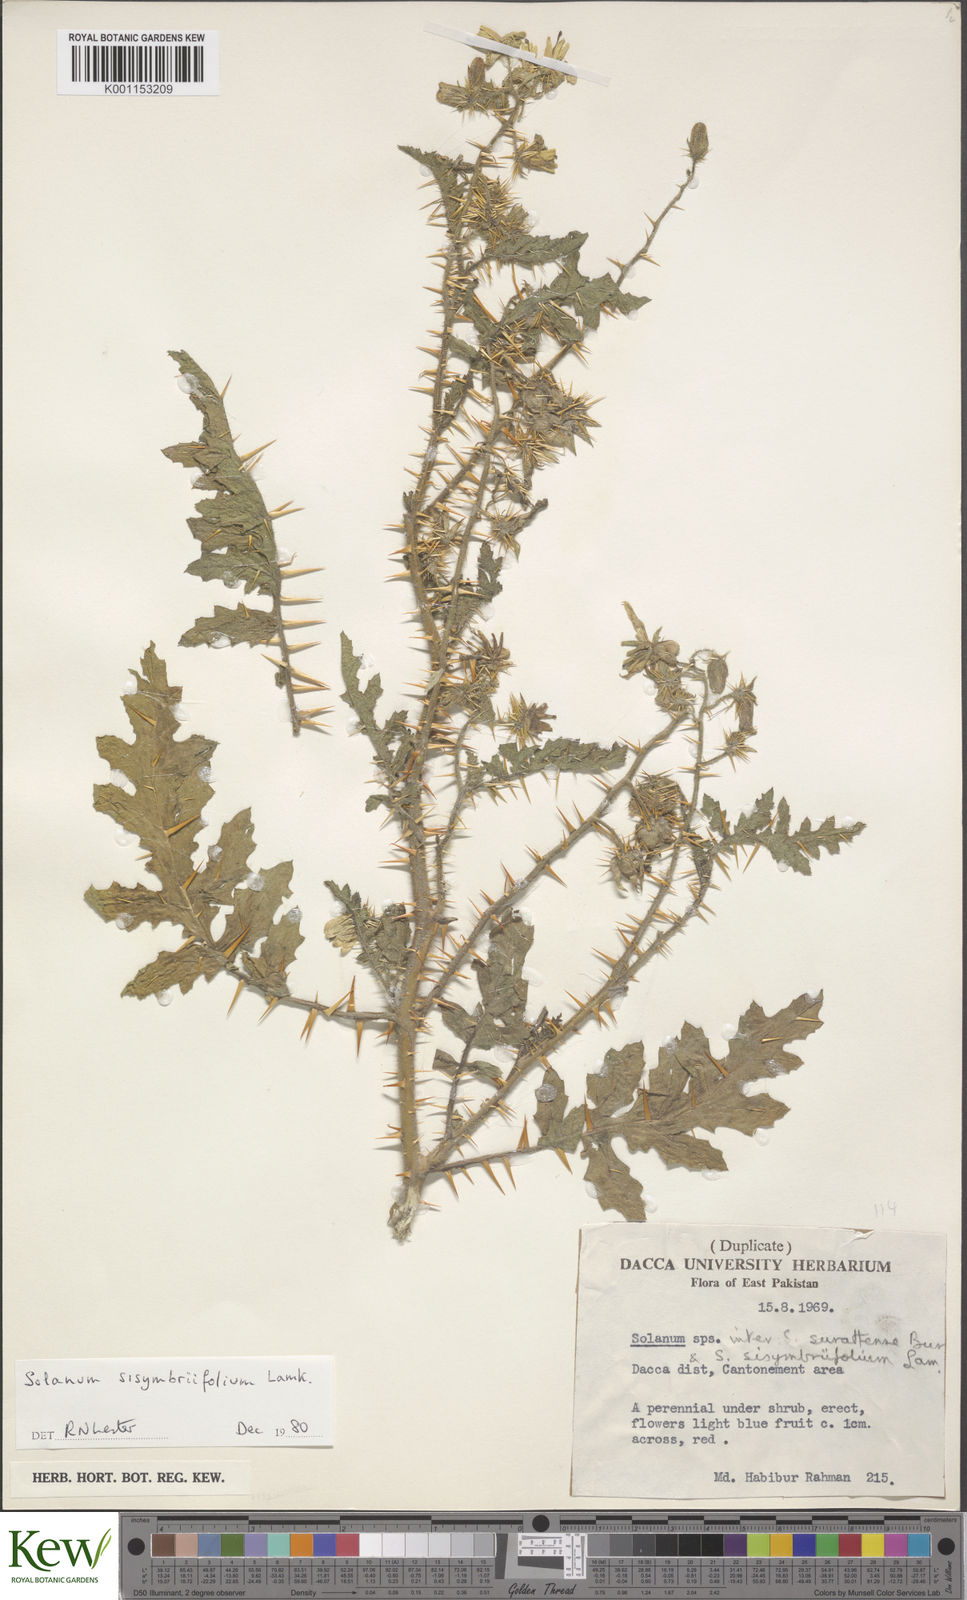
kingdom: Plantae
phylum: Tracheophyta
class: Magnoliopsida
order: Solanales
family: Solanaceae
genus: Solanum
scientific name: Solanum sisymbriifolium
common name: Red buffalo-bur
